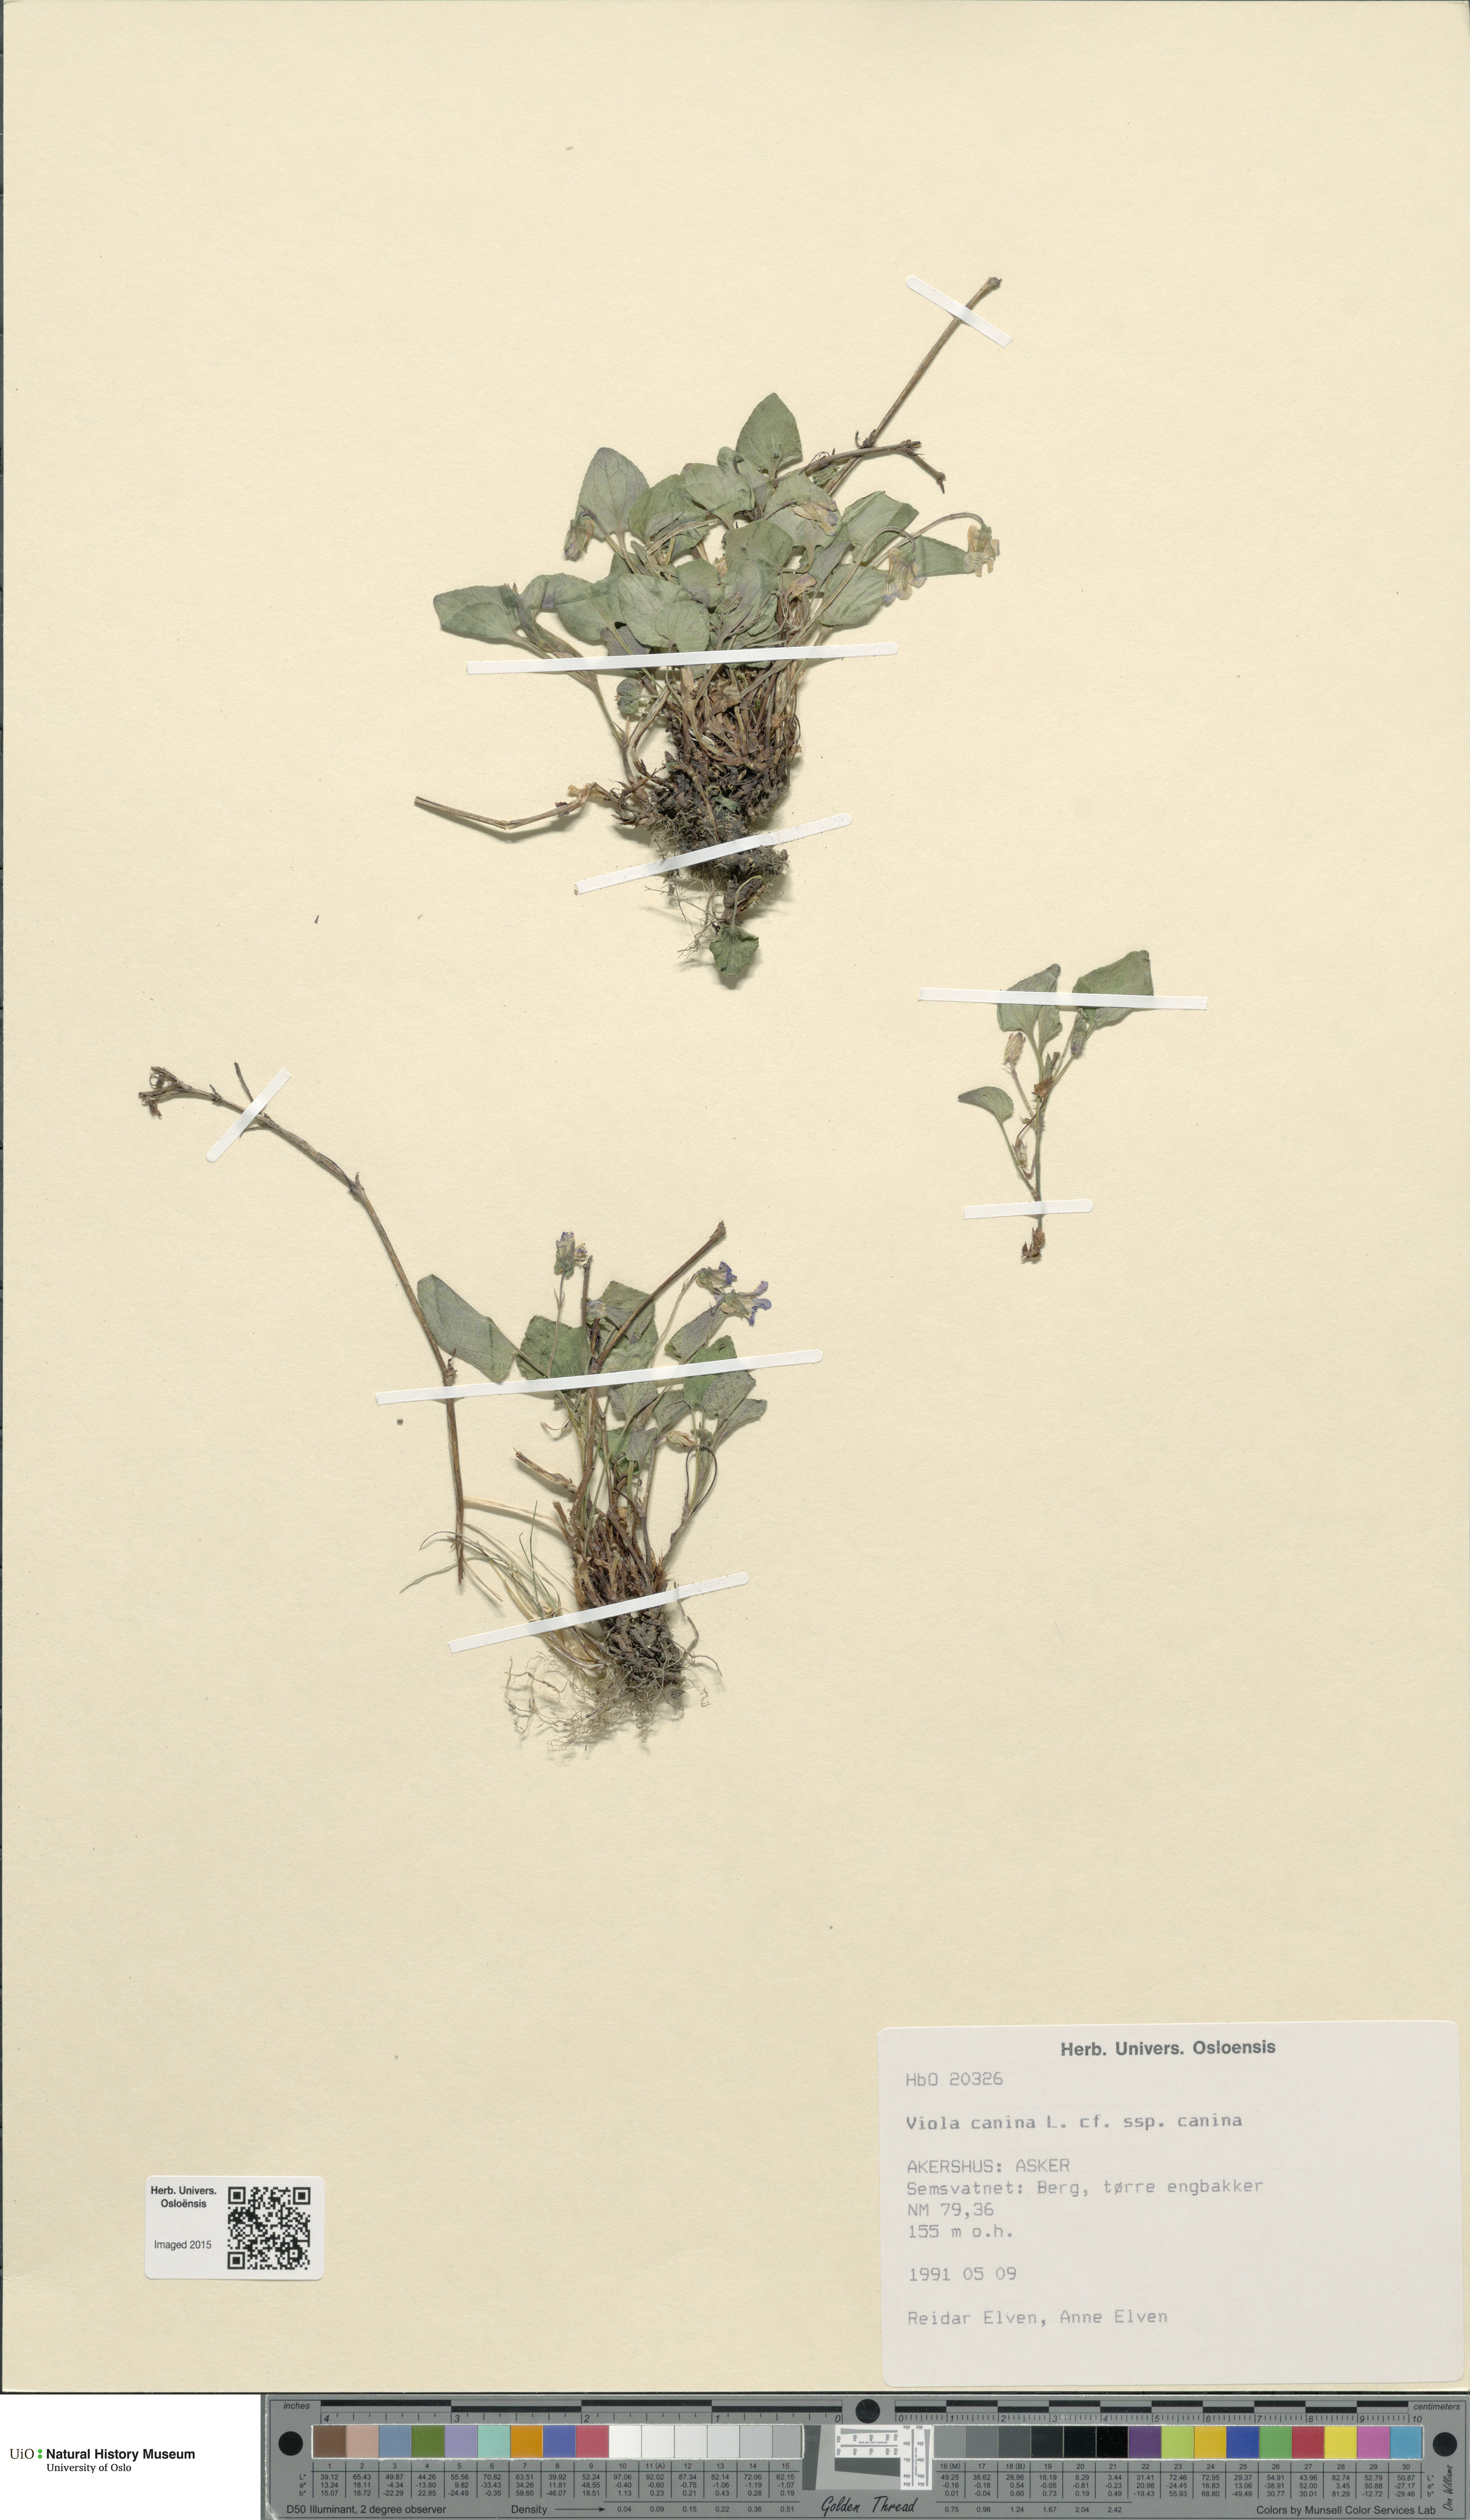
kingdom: Plantae
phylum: Tracheophyta
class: Magnoliopsida
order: Malpighiales
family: Violaceae
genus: Viola
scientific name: Viola canina
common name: Heath dog-violet
